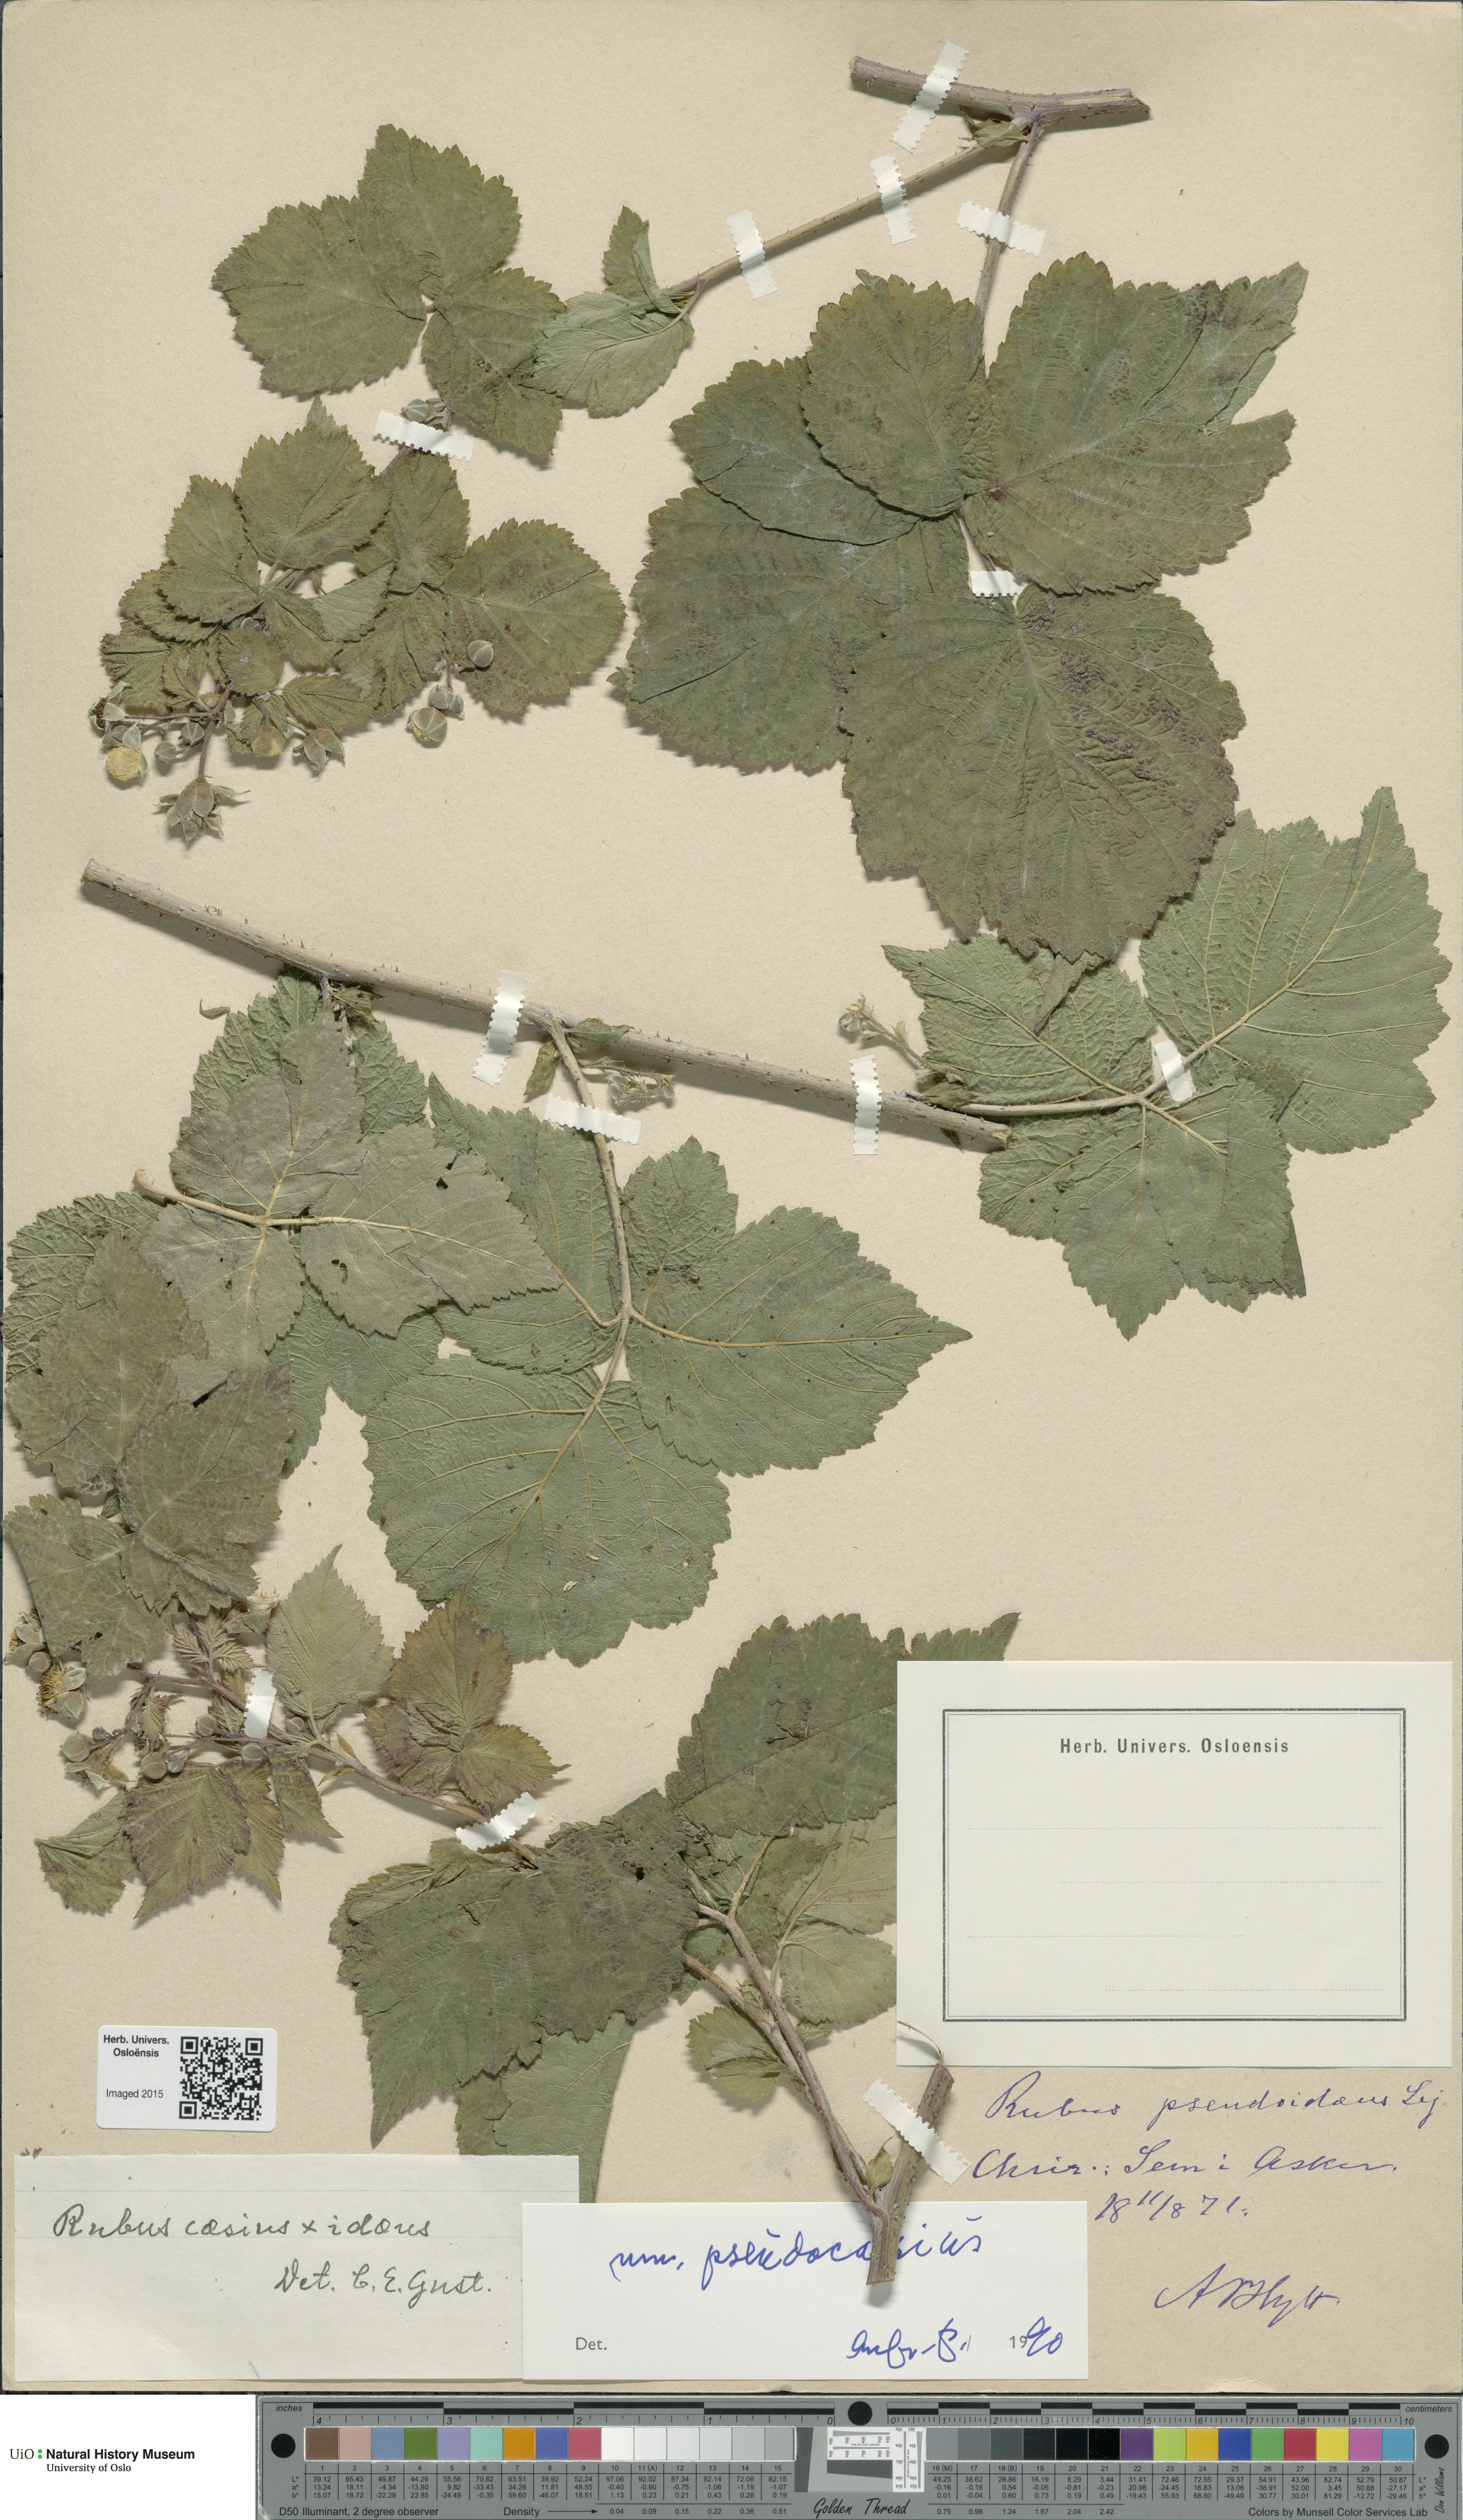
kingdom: Plantae
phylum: Tracheophyta
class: Magnoliopsida
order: Rosales
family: Rosaceae
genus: Rubus
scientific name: Rubus
